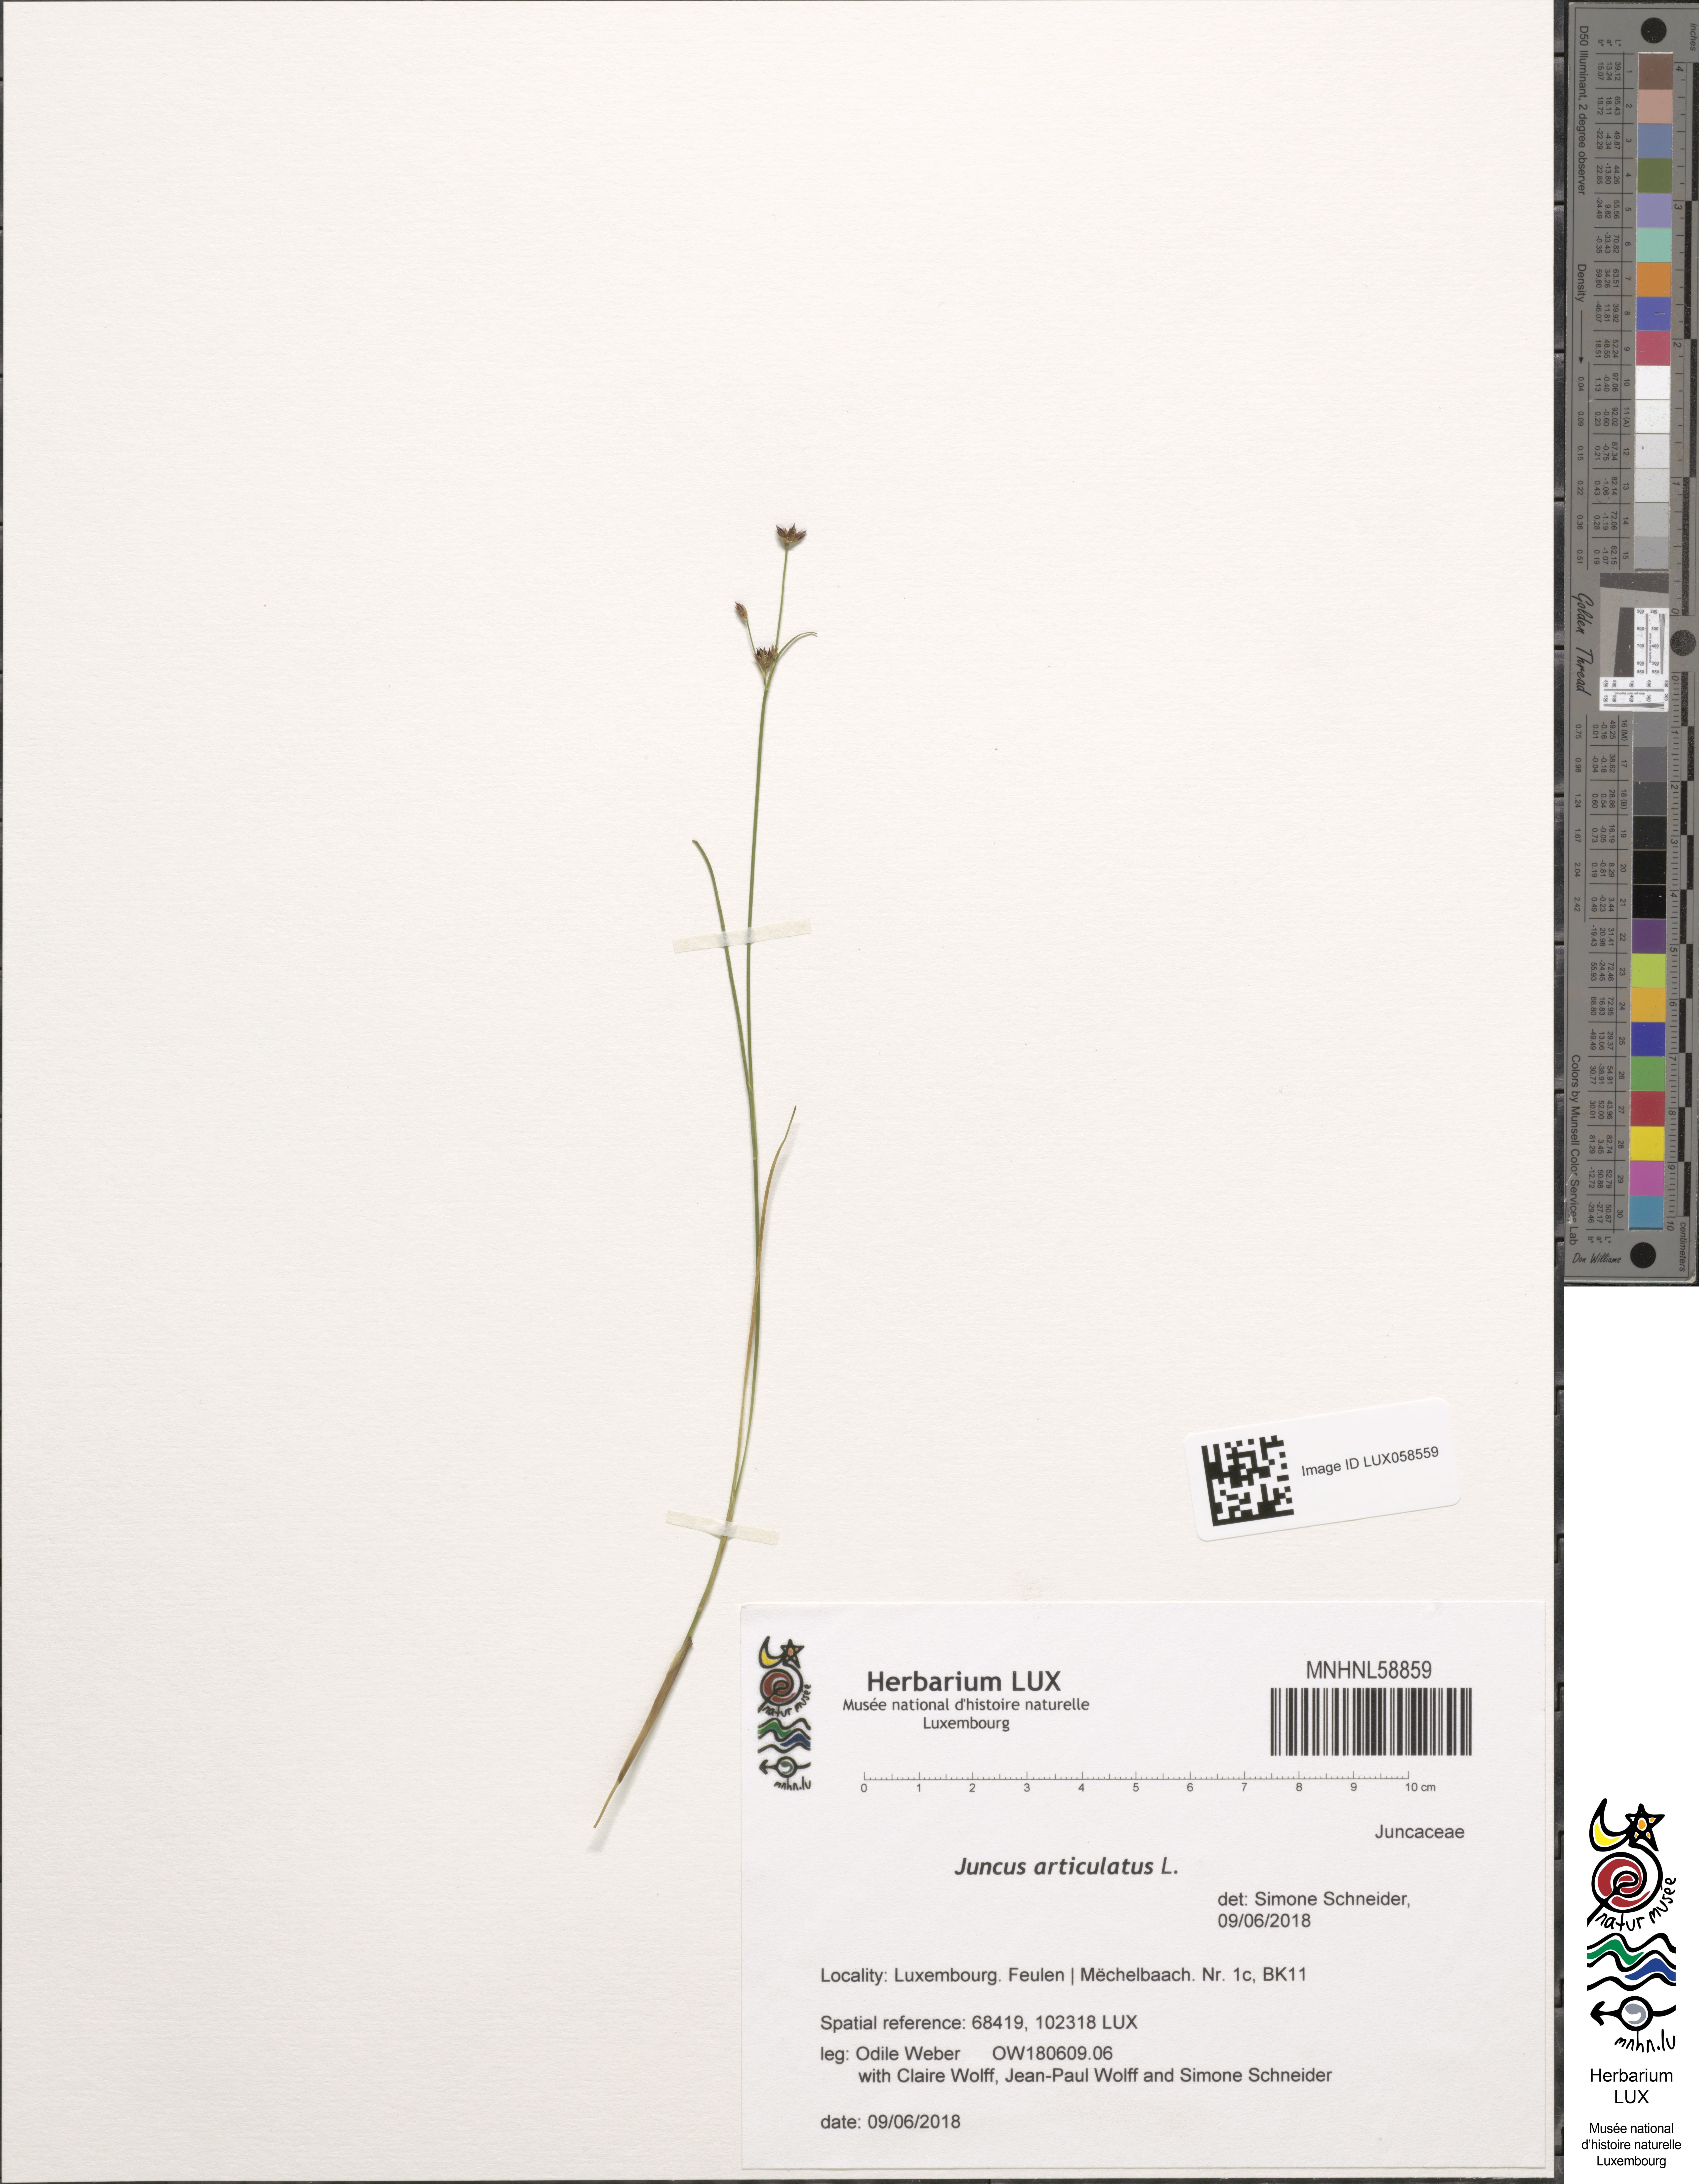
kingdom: Plantae
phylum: Tracheophyta
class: Liliopsida
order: Poales
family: Juncaceae
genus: Juncus
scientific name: Juncus articulatus
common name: Jointed rush
